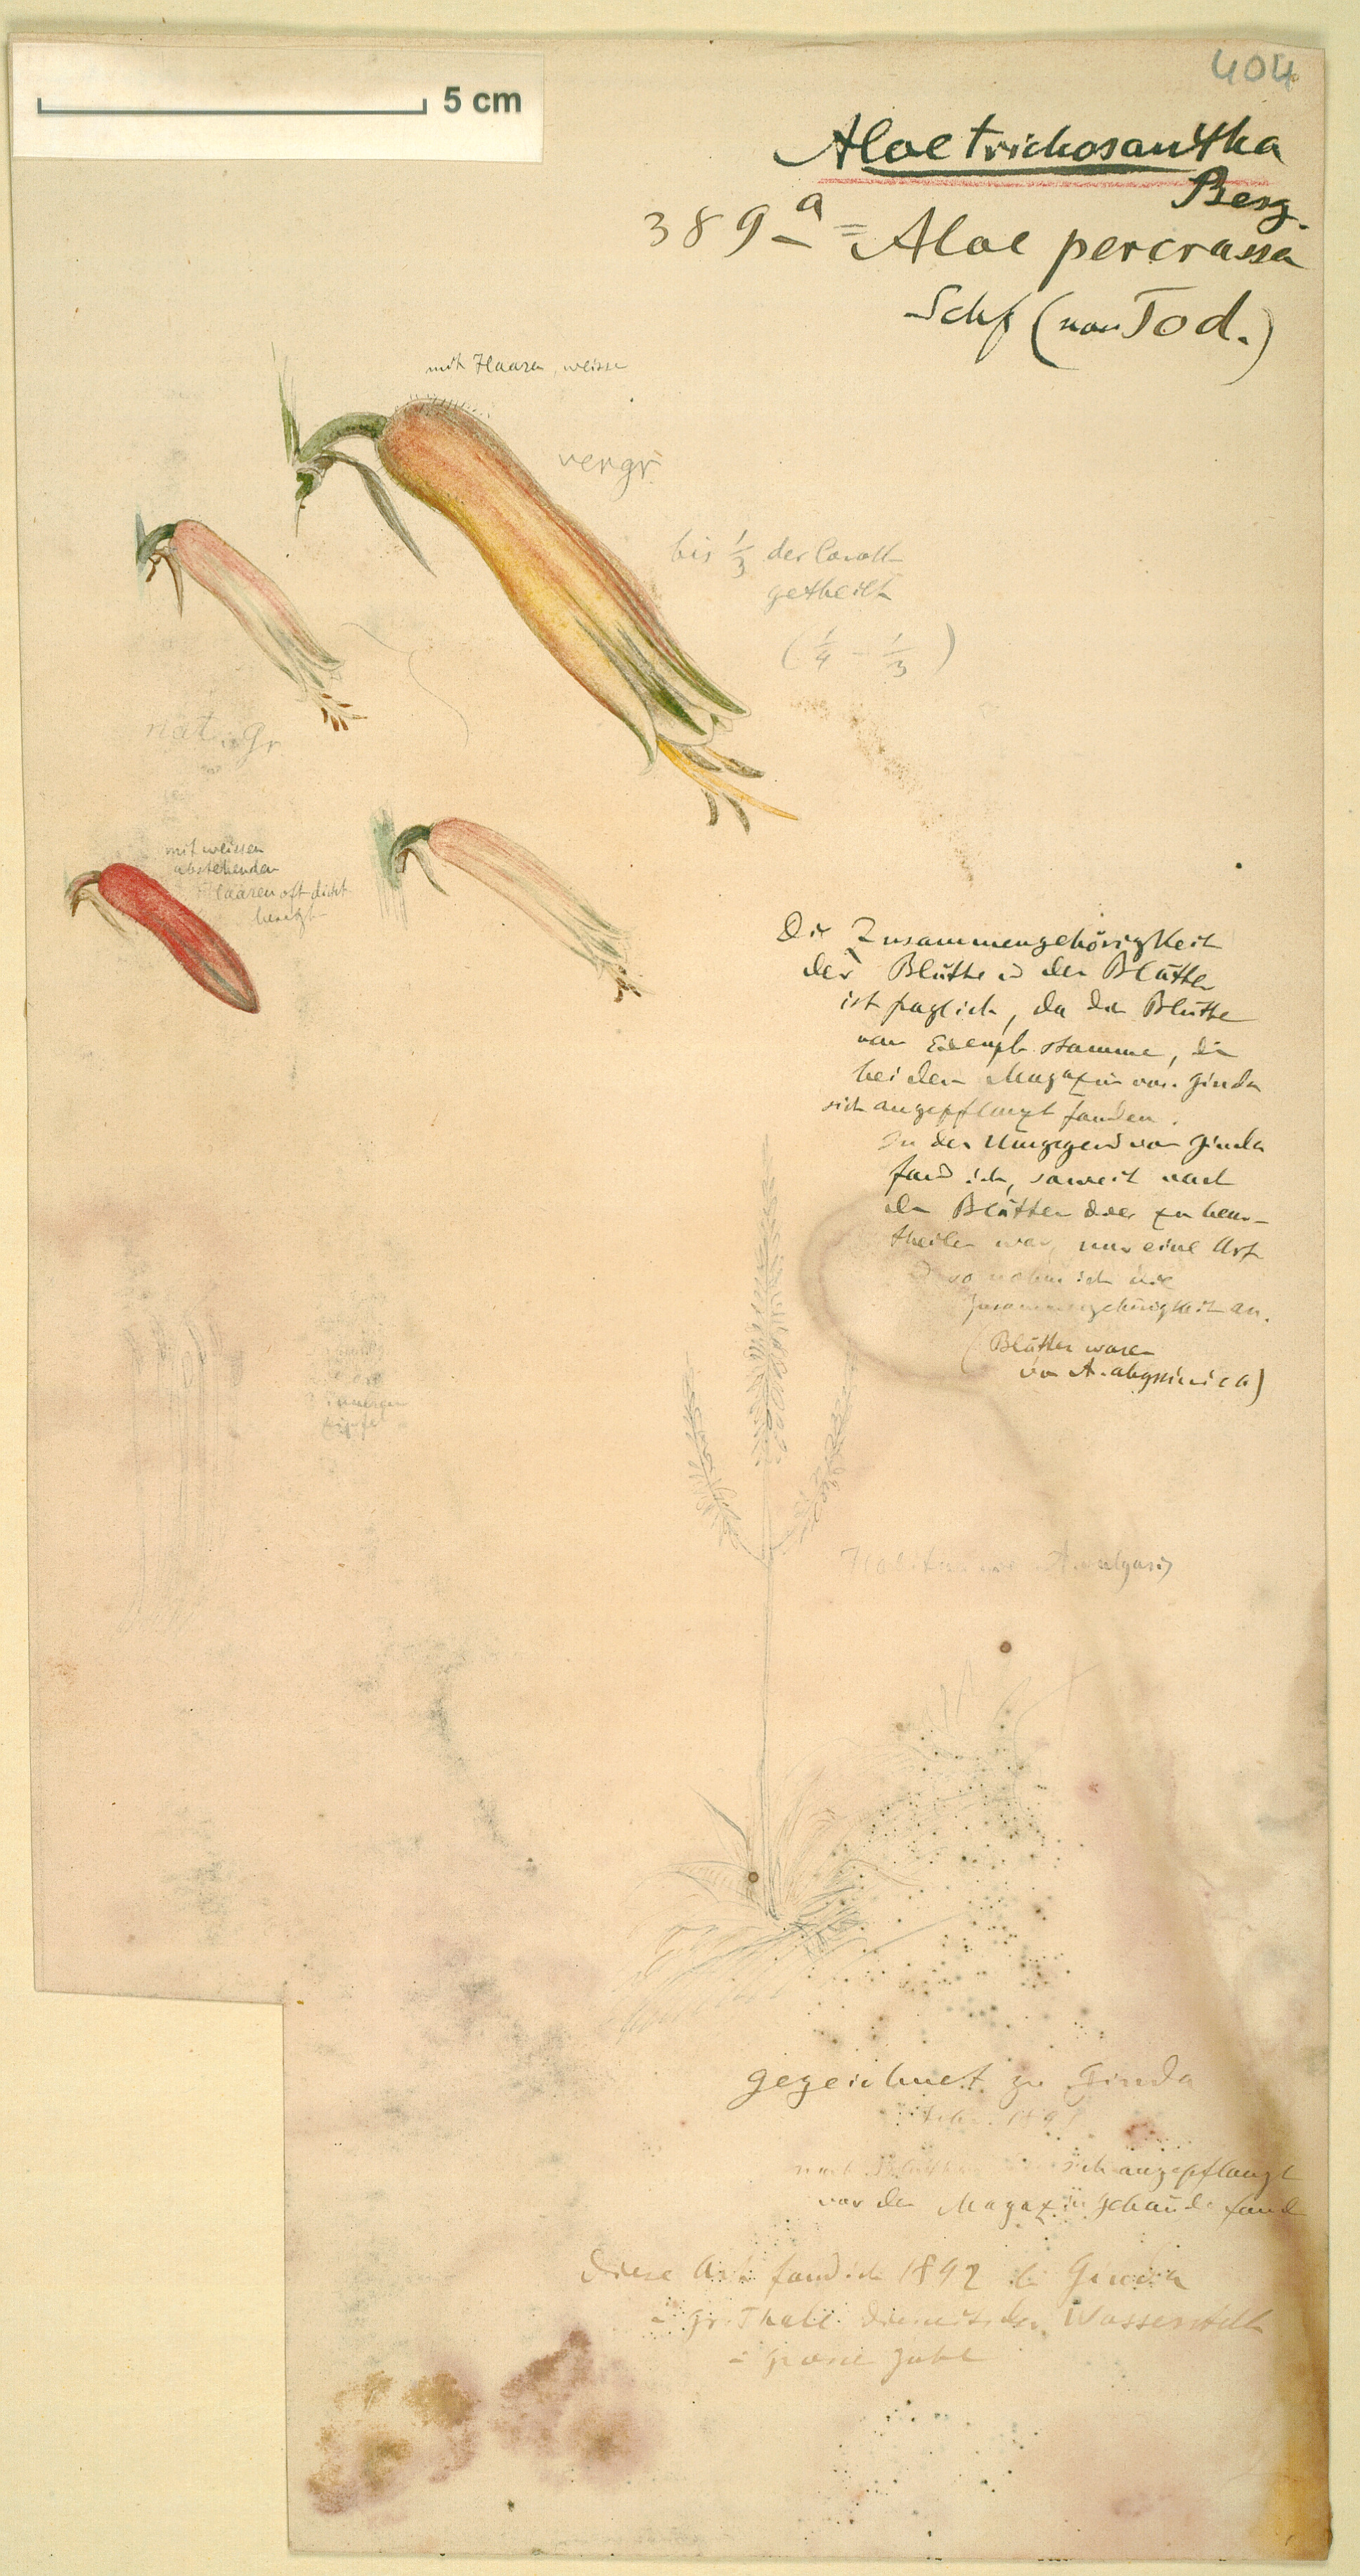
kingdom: Plantae
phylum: Tracheophyta
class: Liliopsida
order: Asparagales
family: Asphodelaceae
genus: Aloe
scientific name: Aloe trichosantha
